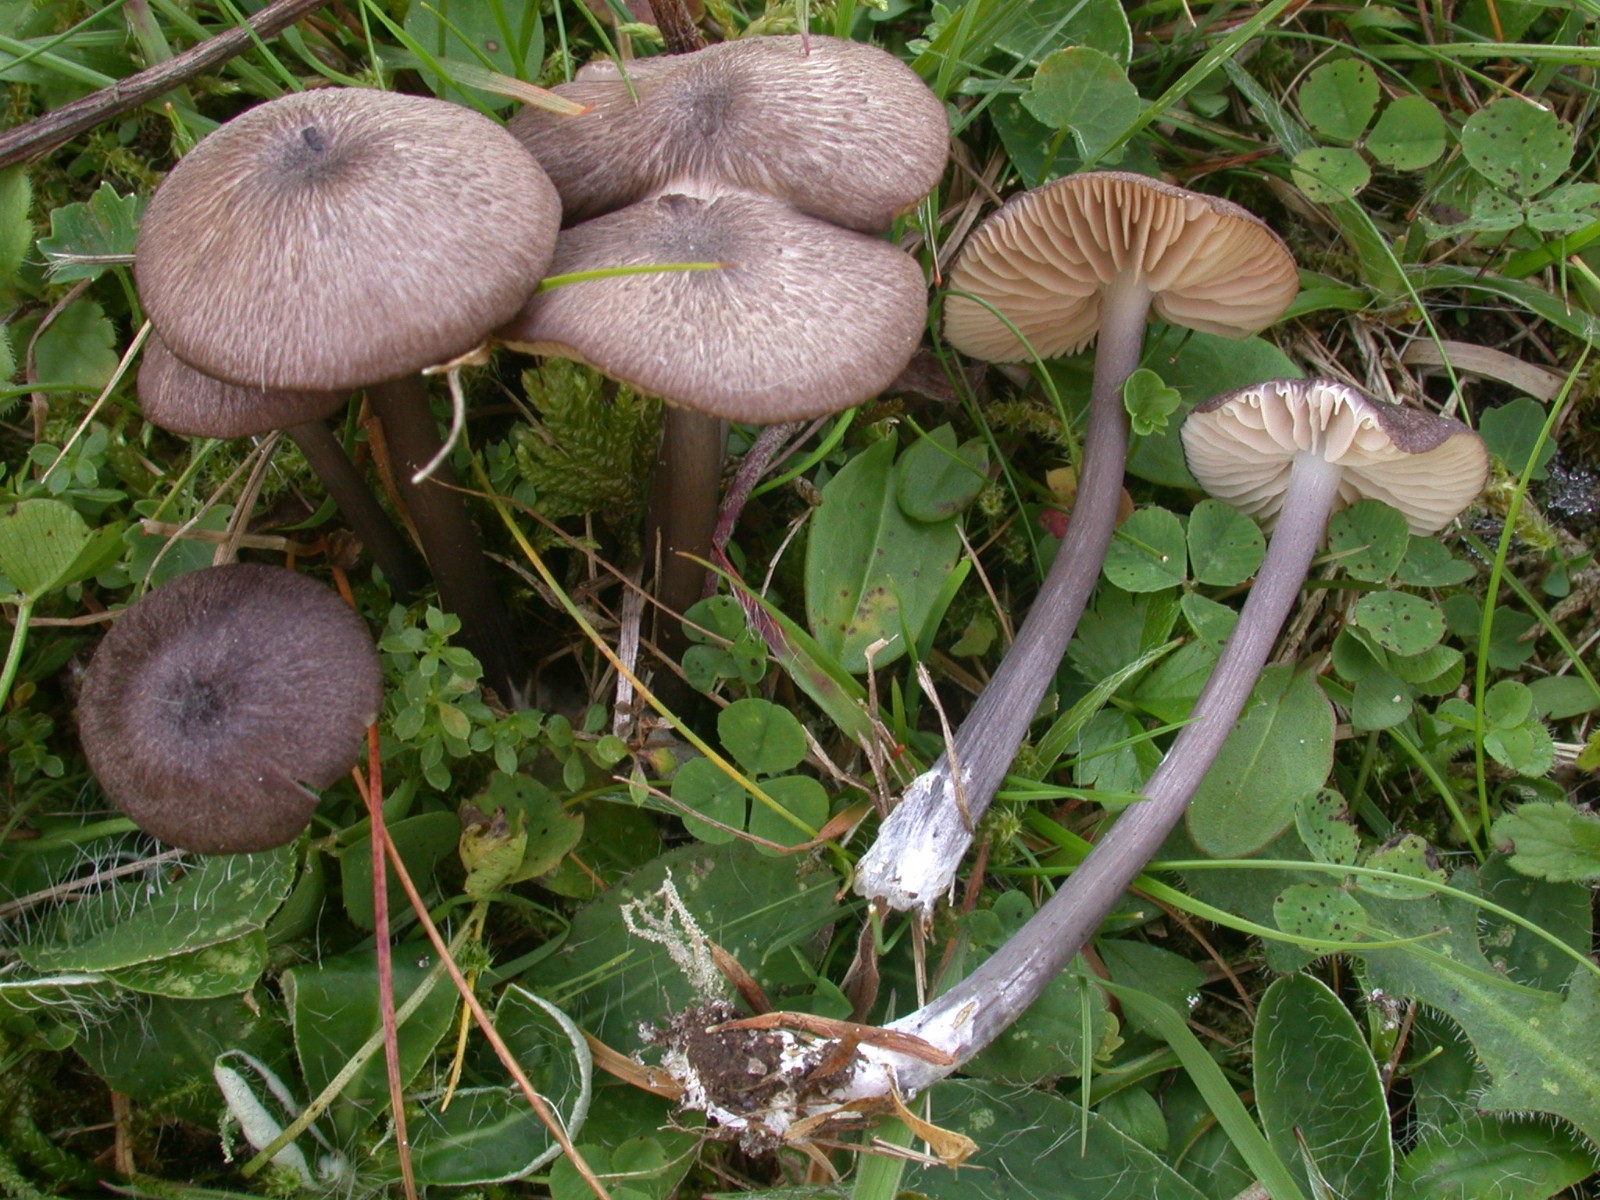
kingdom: Fungi
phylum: Basidiomycota
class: Agaricomycetes
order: Agaricales
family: Entolomataceae
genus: Entoloma
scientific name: Entoloma viiduense
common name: purpurbrun rødblad
